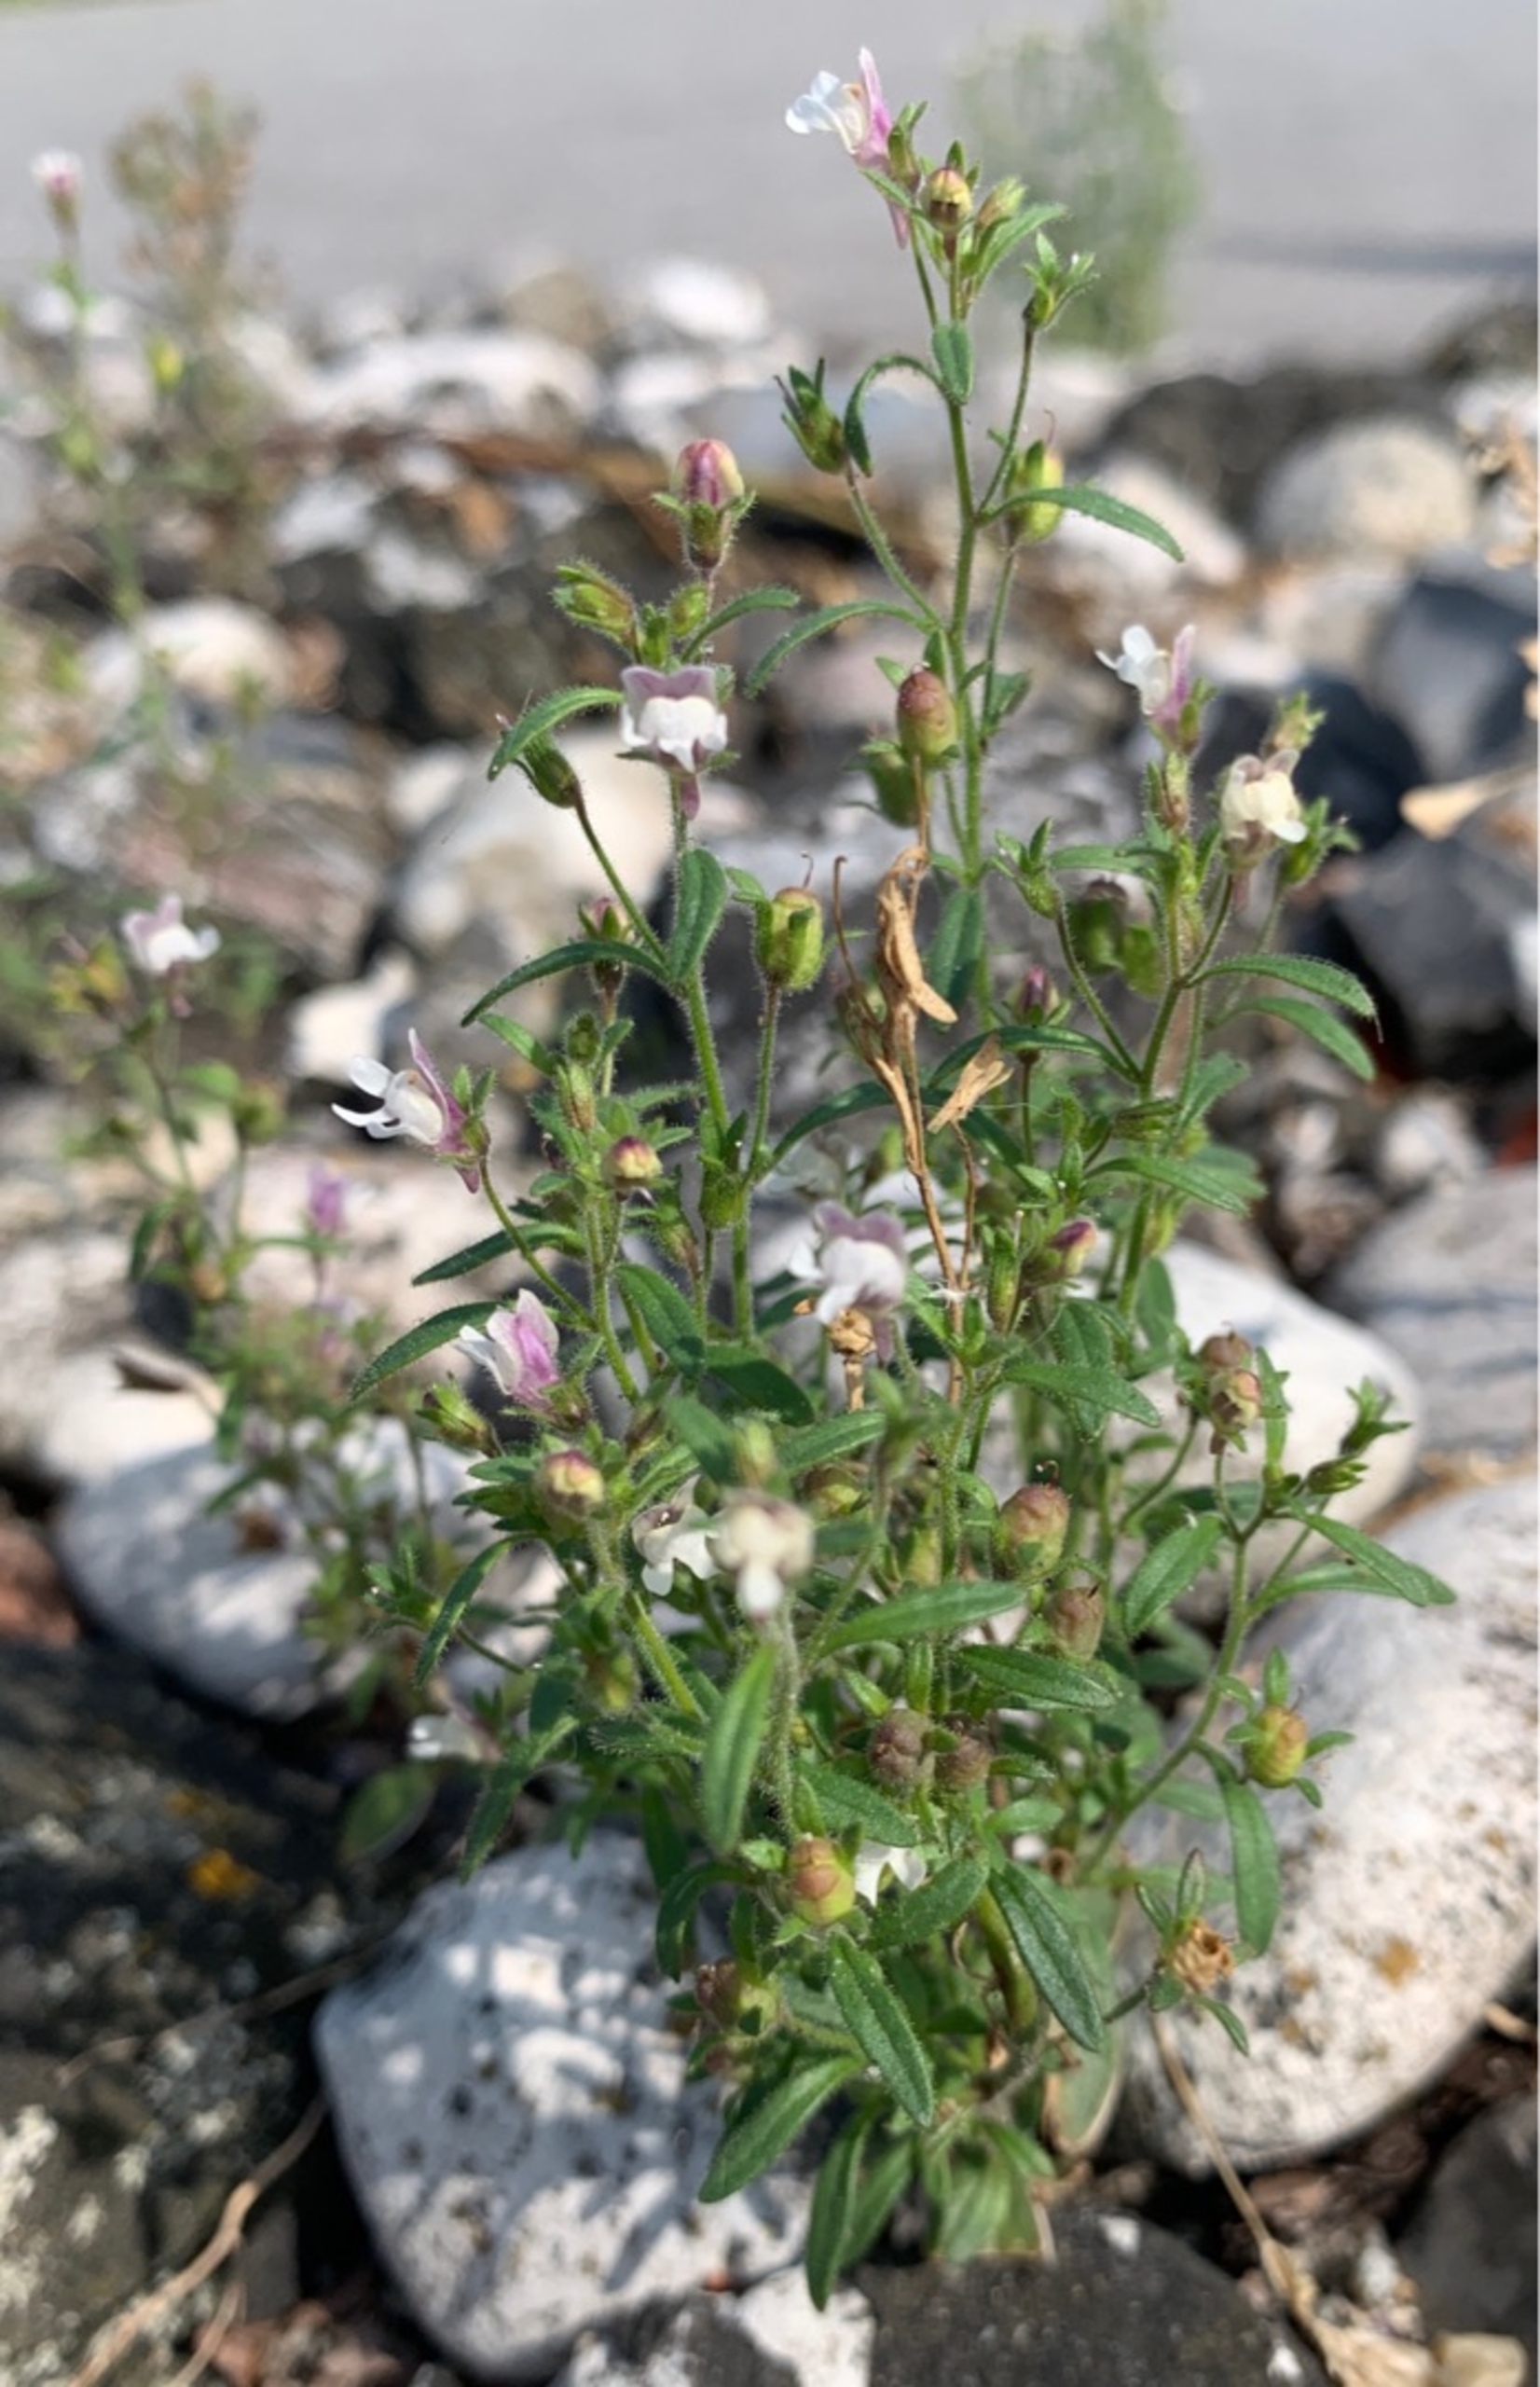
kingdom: Plantae
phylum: Tracheophyta
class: Magnoliopsida
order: Lamiales
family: Plantaginaceae
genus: Chaenorhinum
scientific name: Chaenorhinum minus
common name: Liden torskemund
